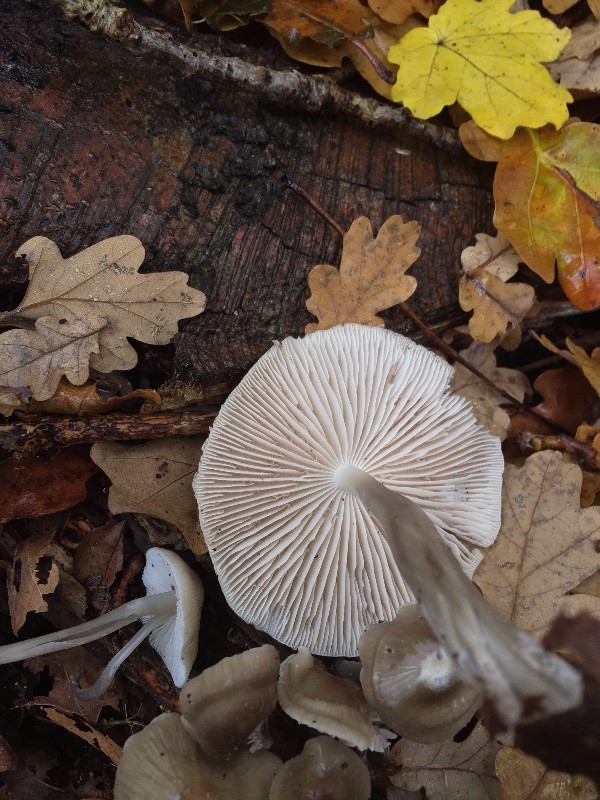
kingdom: Fungi
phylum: Basidiomycota
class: Agaricomycetes
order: Agaricales
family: Tricholomataceae
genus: Megacollybia
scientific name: Megacollybia platyphylla
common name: bredbladet væbnerhat
